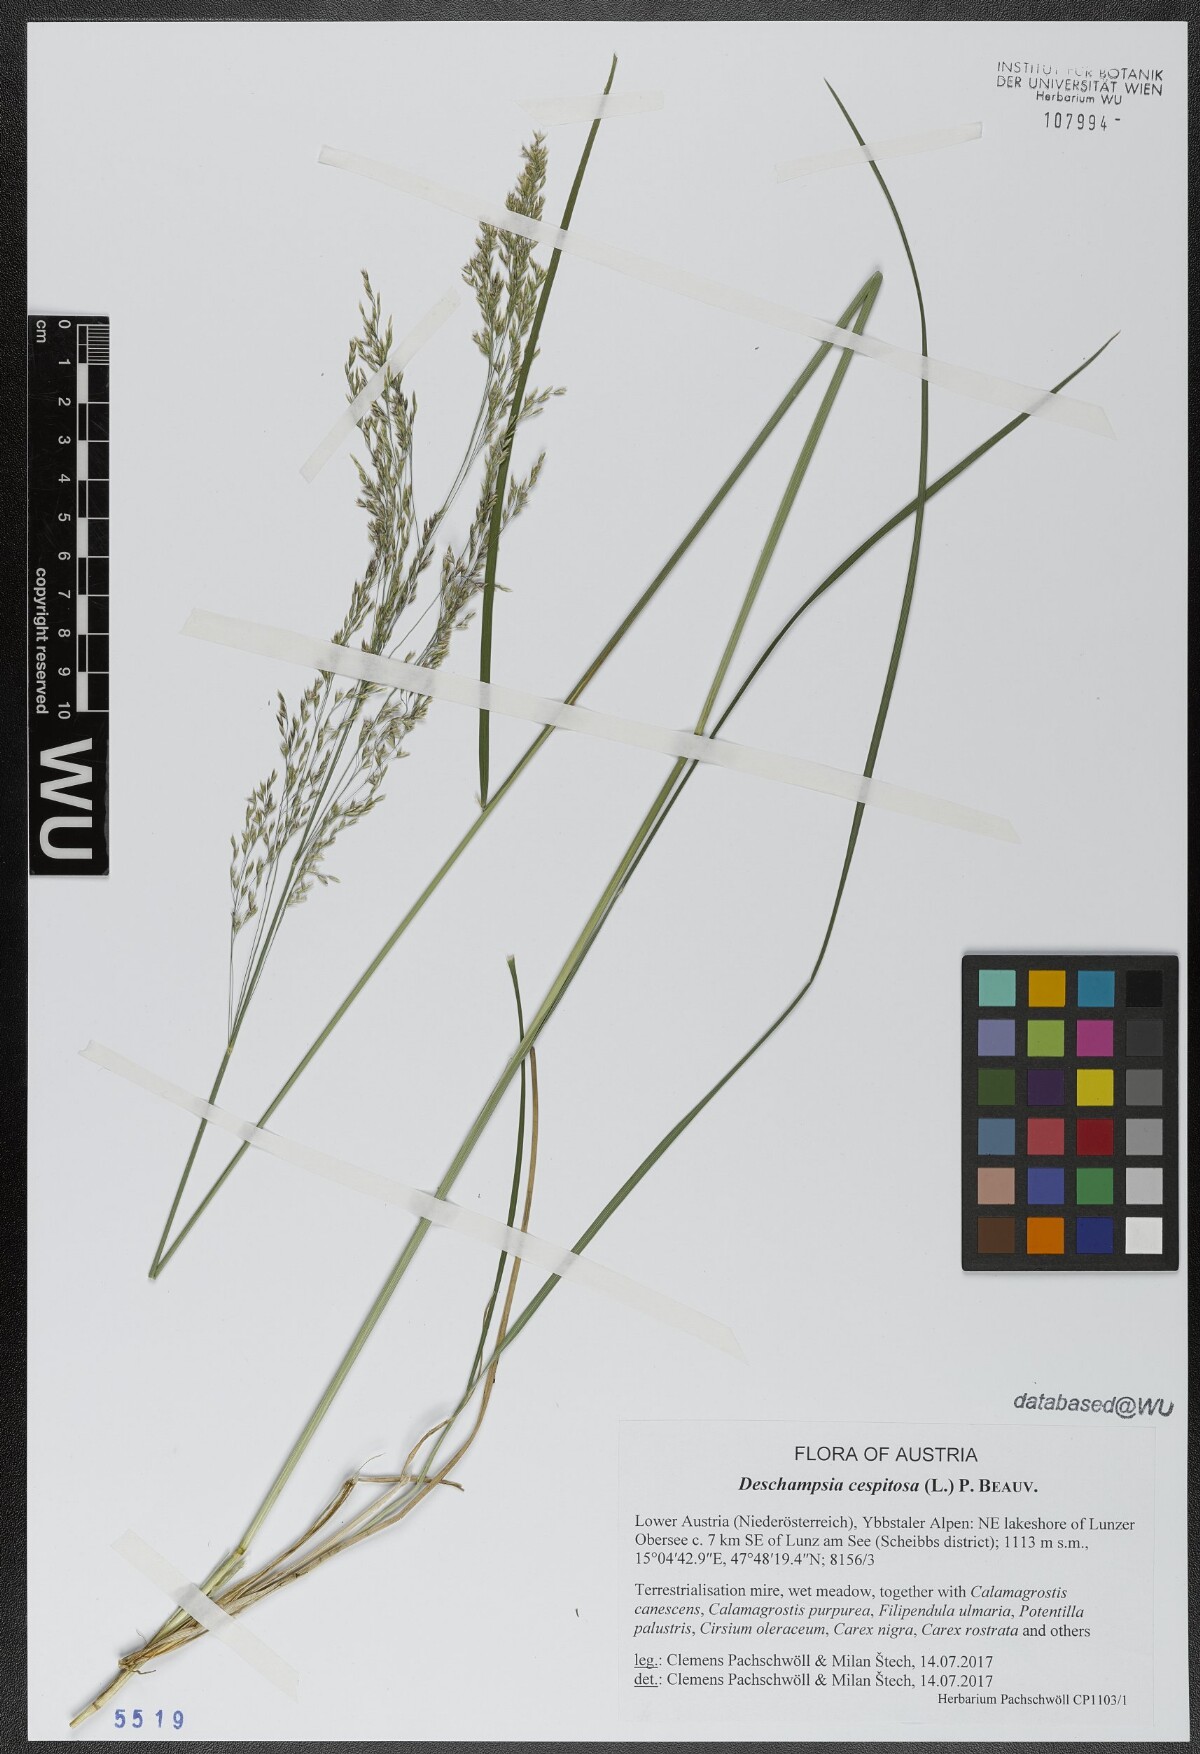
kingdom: Plantae
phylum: Tracheophyta
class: Liliopsida
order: Poales
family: Poaceae
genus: Deschampsia
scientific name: Deschampsia cespitosa
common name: Tufted hair-grass
